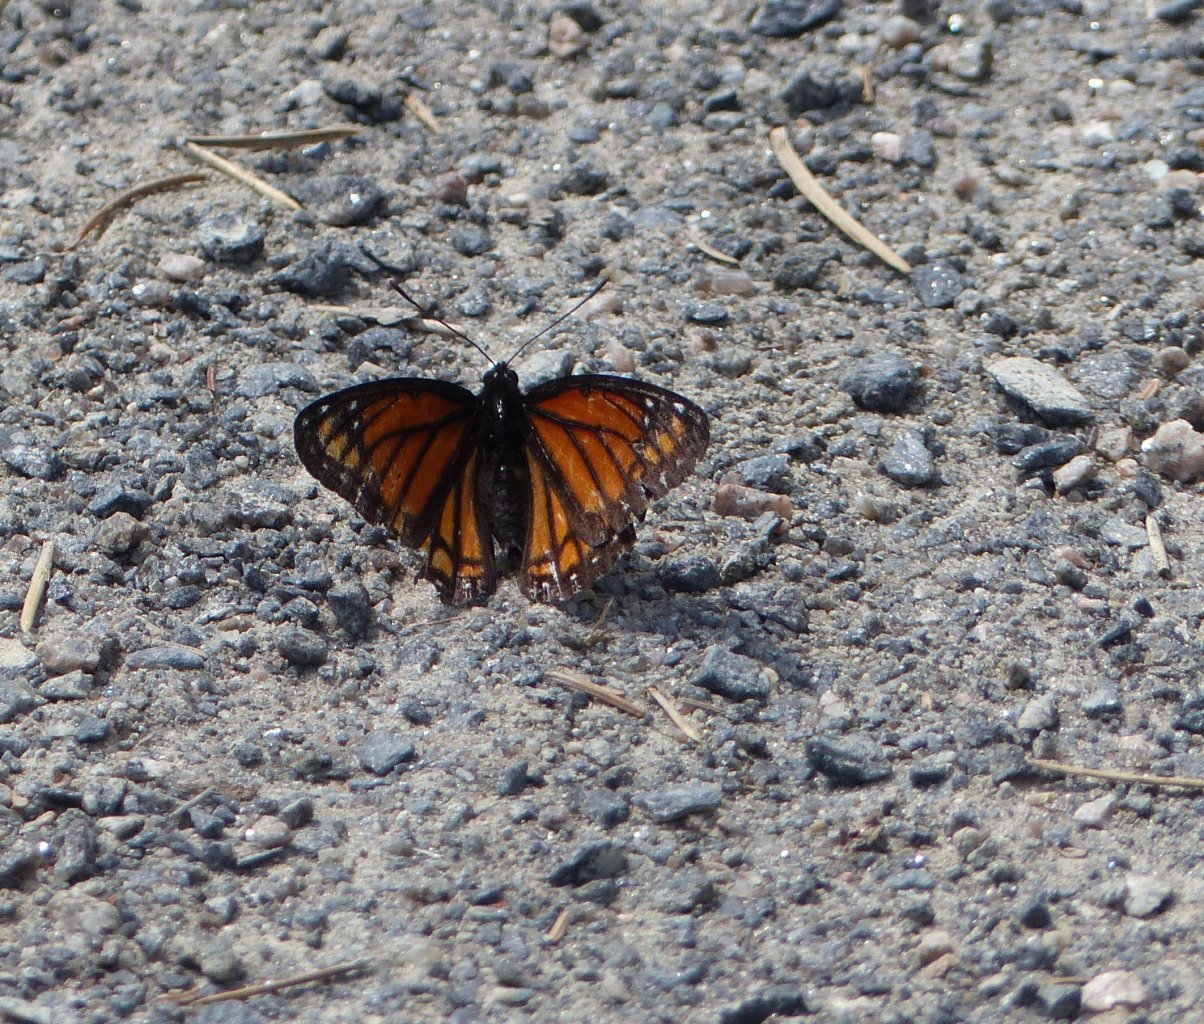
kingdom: Animalia
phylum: Arthropoda
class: Insecta
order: Lepidoptera
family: Nymphalidae
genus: Limenitis
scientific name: Limenitis archippus
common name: Viceroy
